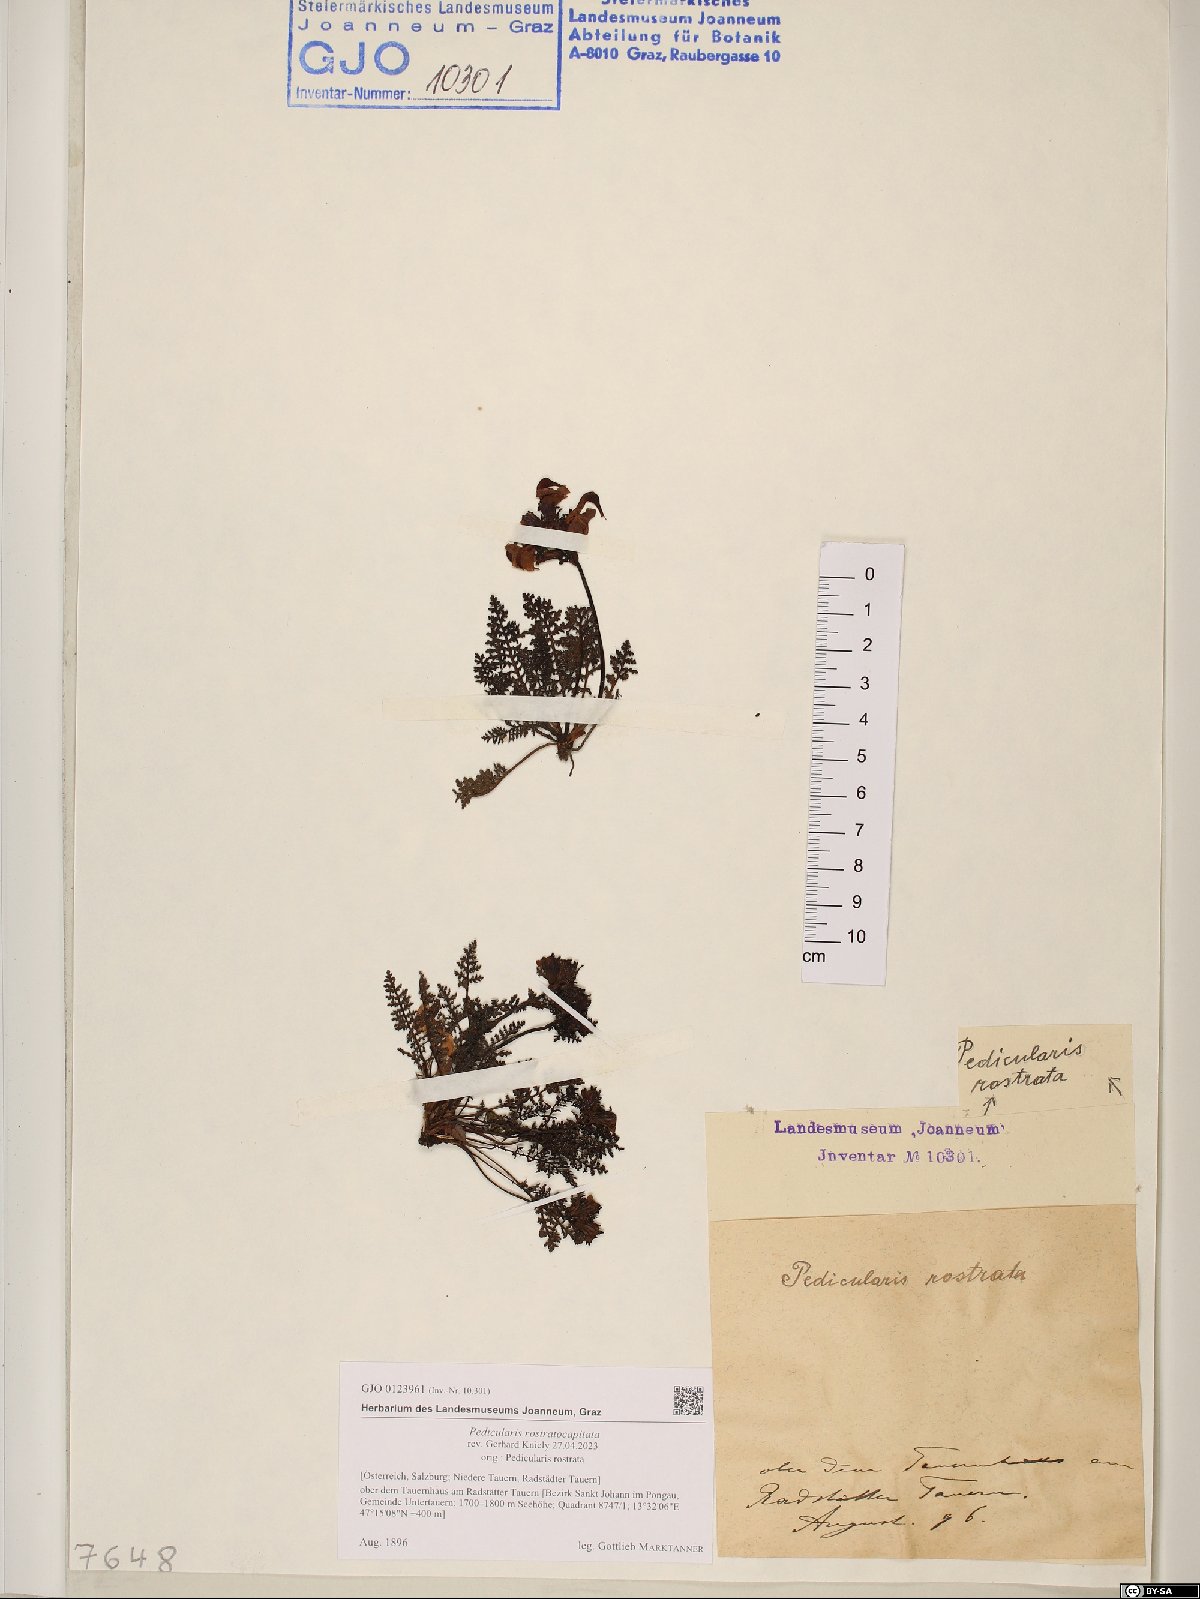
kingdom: Plantae
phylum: Tracheophyta
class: Magnoliopsida
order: Lamiales
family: Orobanchaceae
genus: Pedicularis
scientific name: Pedicularis rostratocapitata
